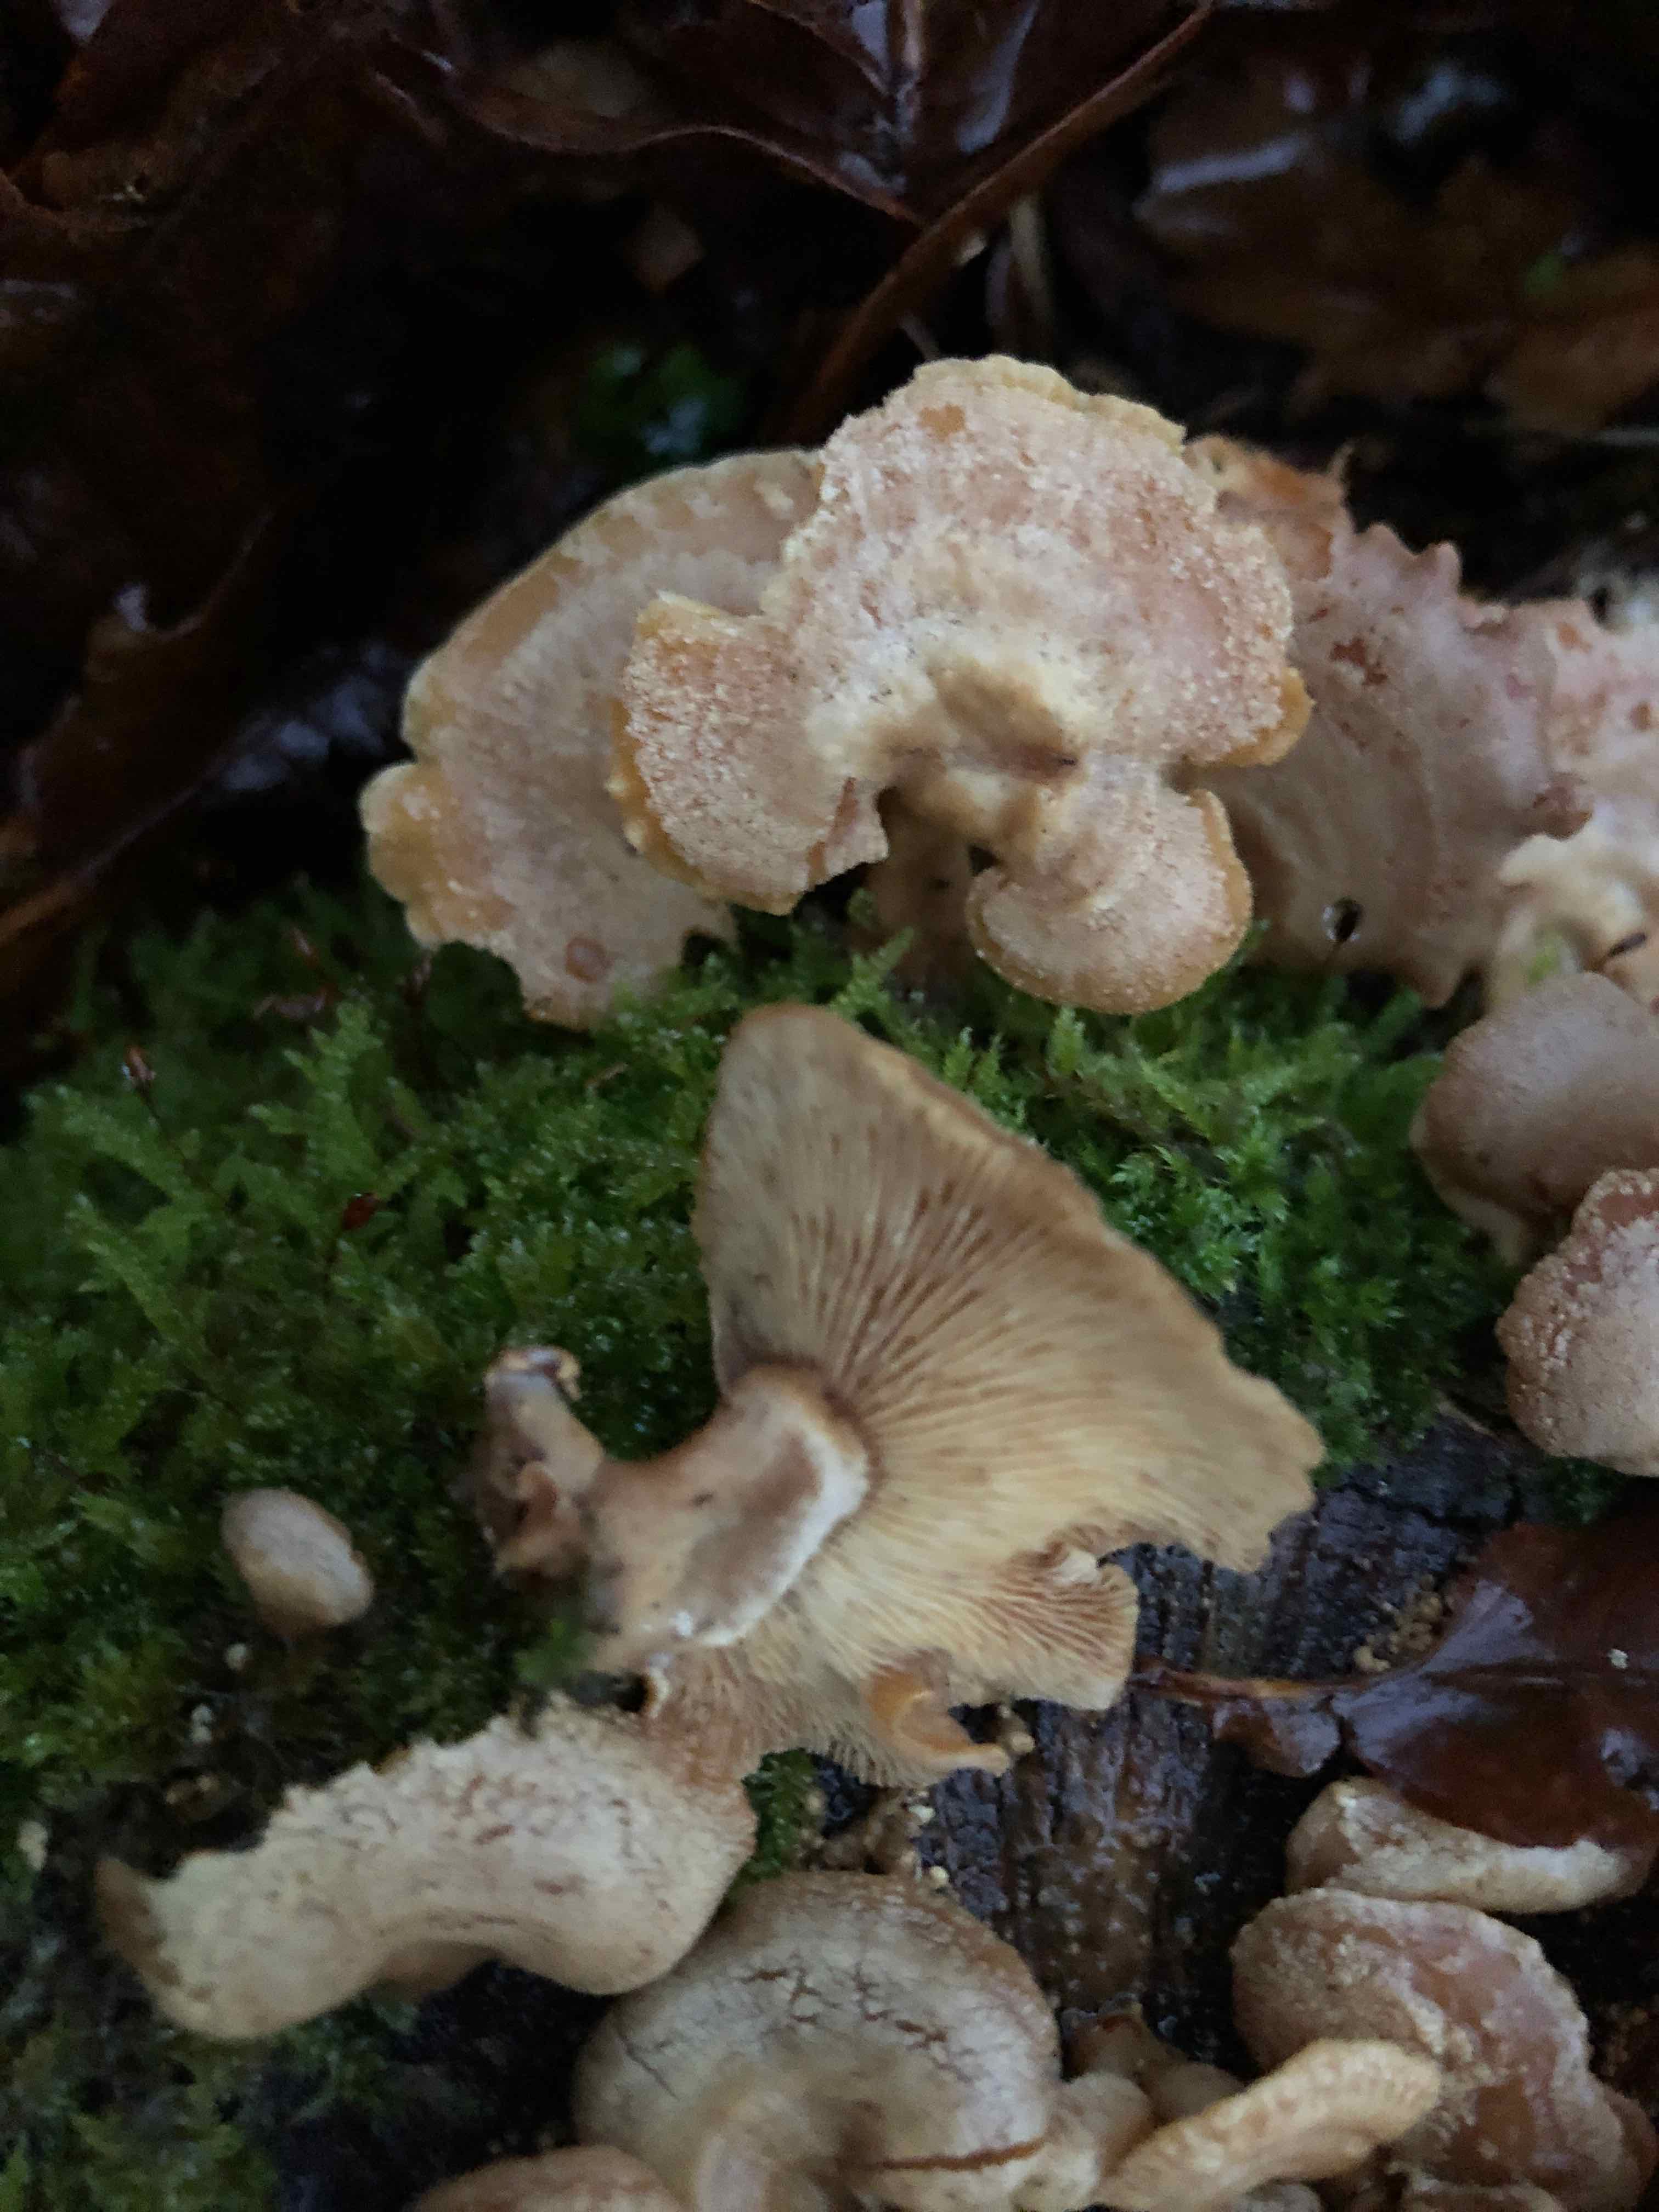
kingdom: Fungi
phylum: Basidiomycota
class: Agaricomycetes
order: Agaricales
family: Mycenaceae
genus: Panellus
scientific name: Panellus stipticus
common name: kliddet epaulethat
